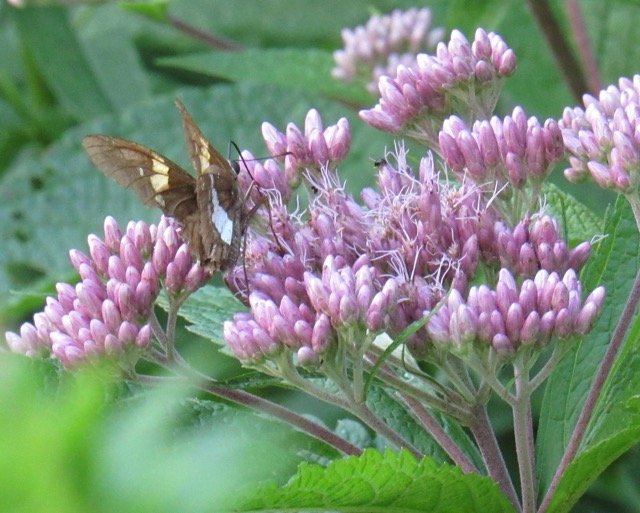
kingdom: Animalia
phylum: Arthropoda
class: Insecta
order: Lepidoptera
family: Hesperiidae
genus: Epargyreus
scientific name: Epargyreus clarus
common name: Silver-spotted Skipper
